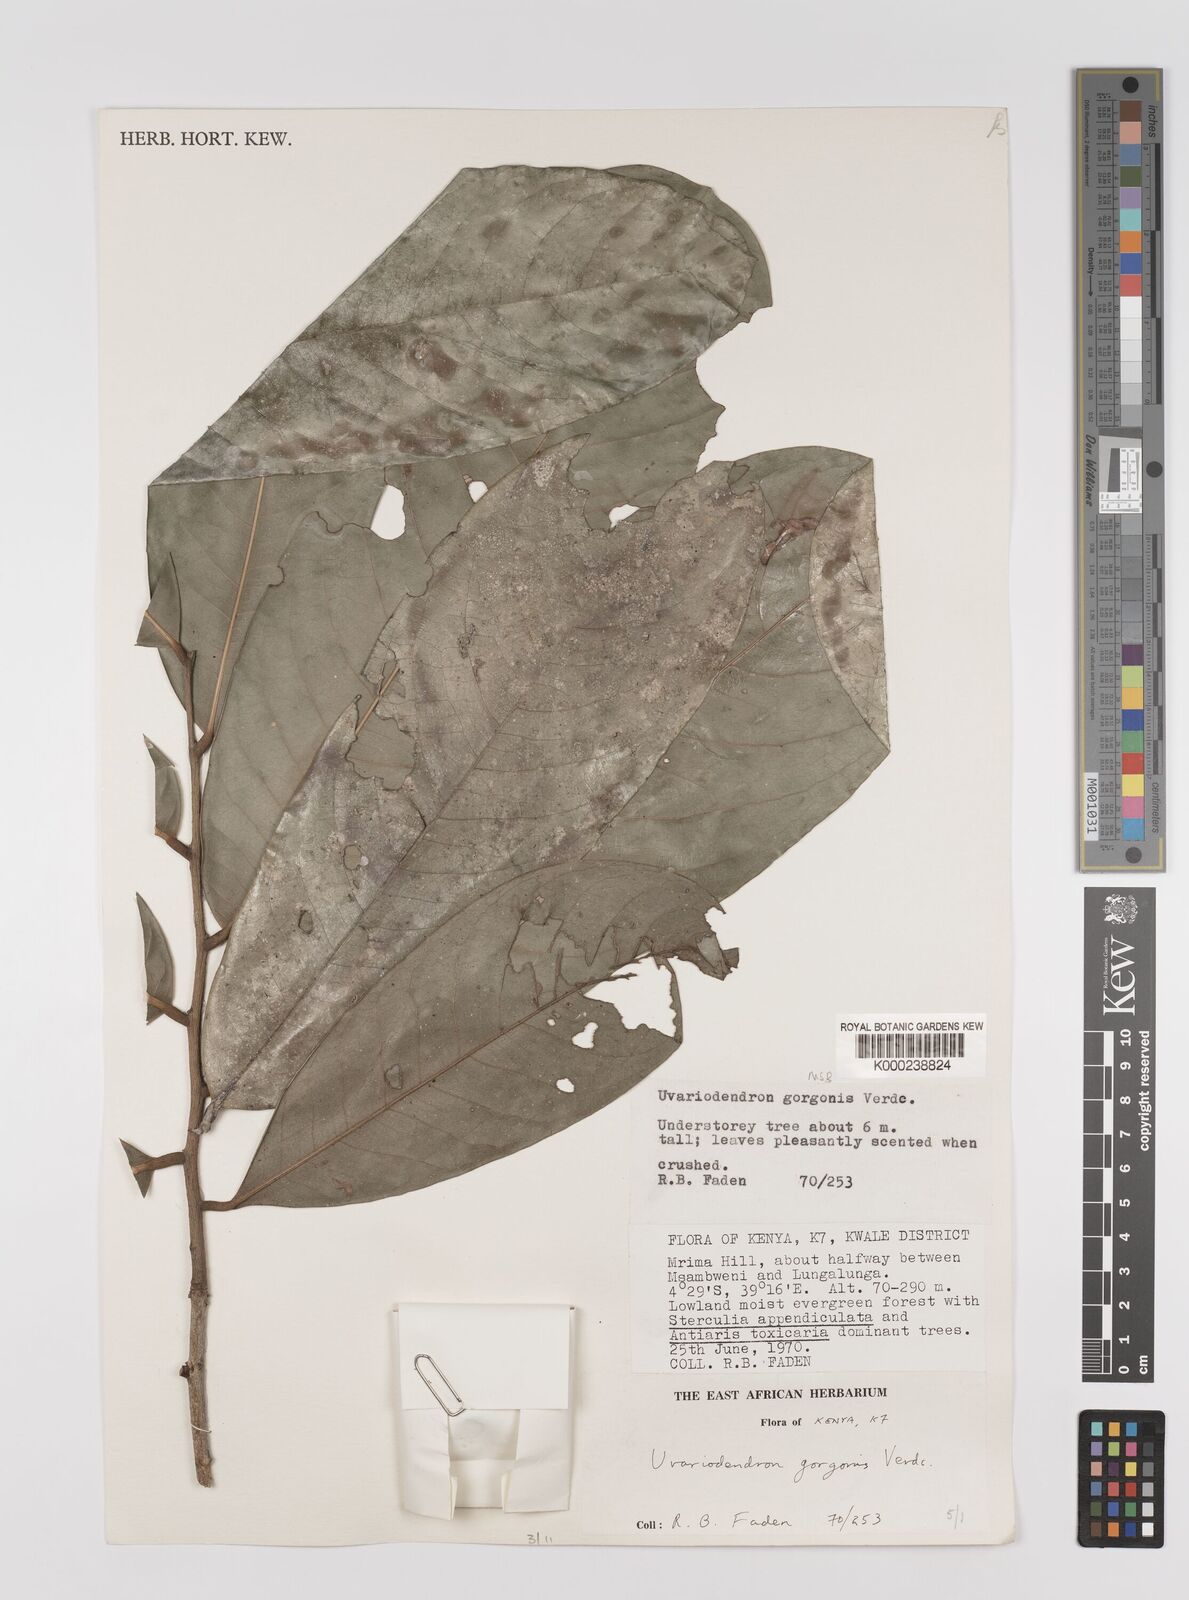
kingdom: Plantae
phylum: Tracheophyta
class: Magnoliopsida
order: Magnoliales
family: Annonaceae
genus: Uvariodendron
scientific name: Uvariodendron gorgonis
